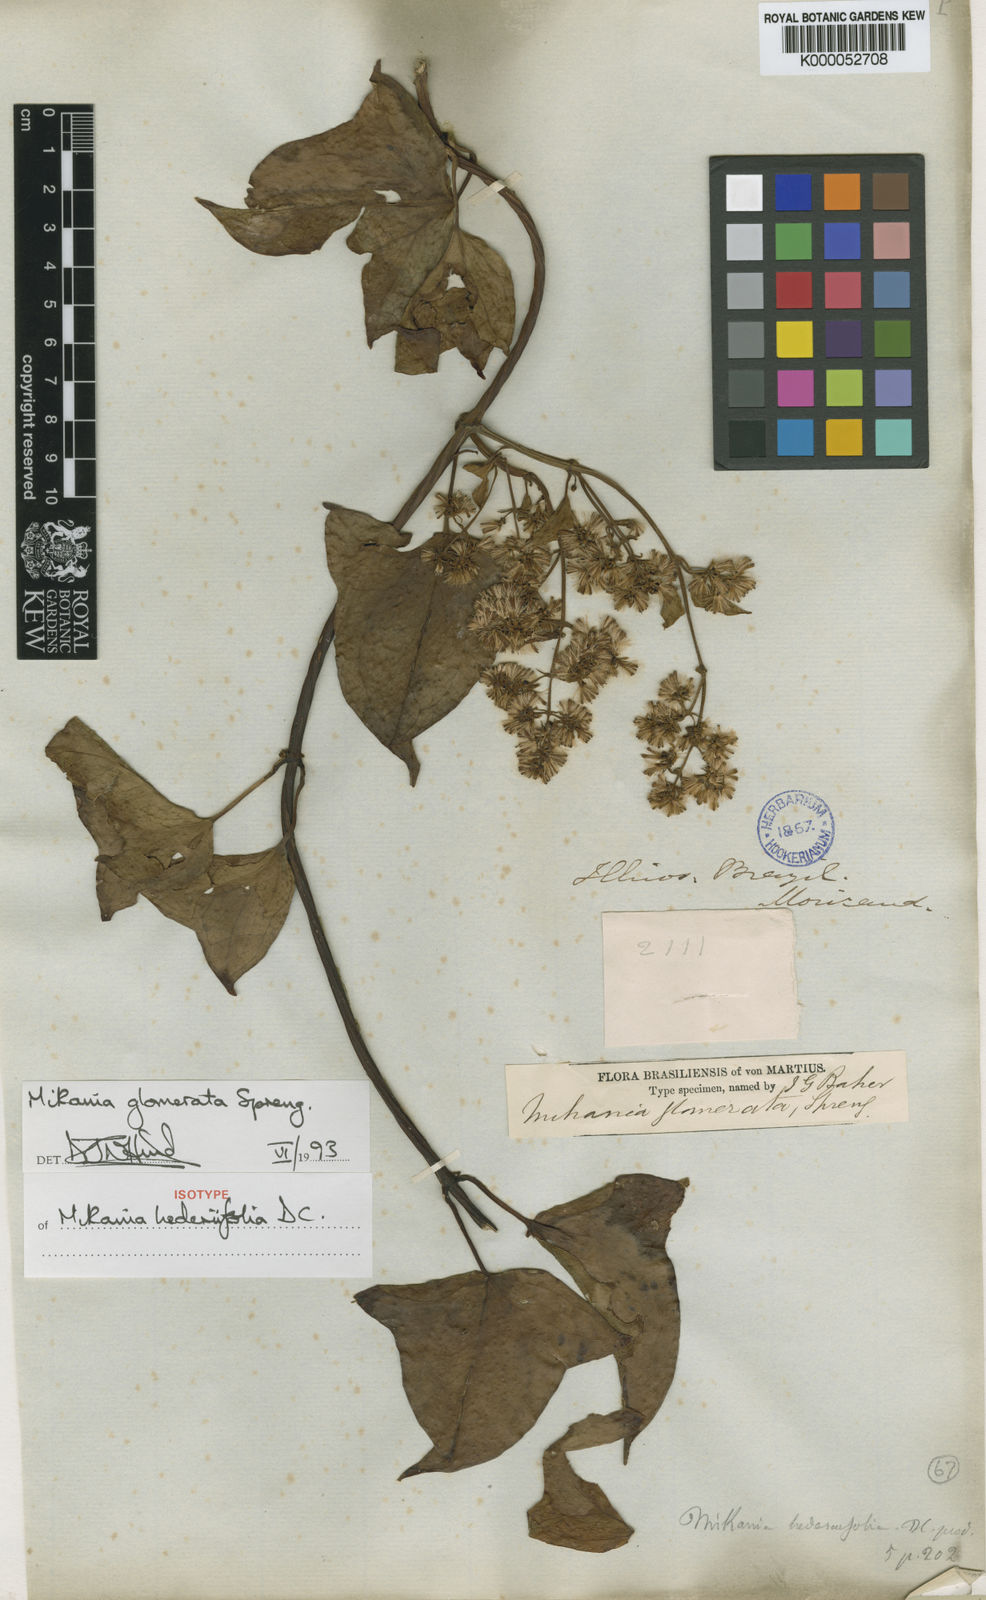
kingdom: Plantae
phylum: Tracheophyta
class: Magnoliopsida
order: Asterales
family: Asteraceae
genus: Mikania
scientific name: Mikania glomerata
